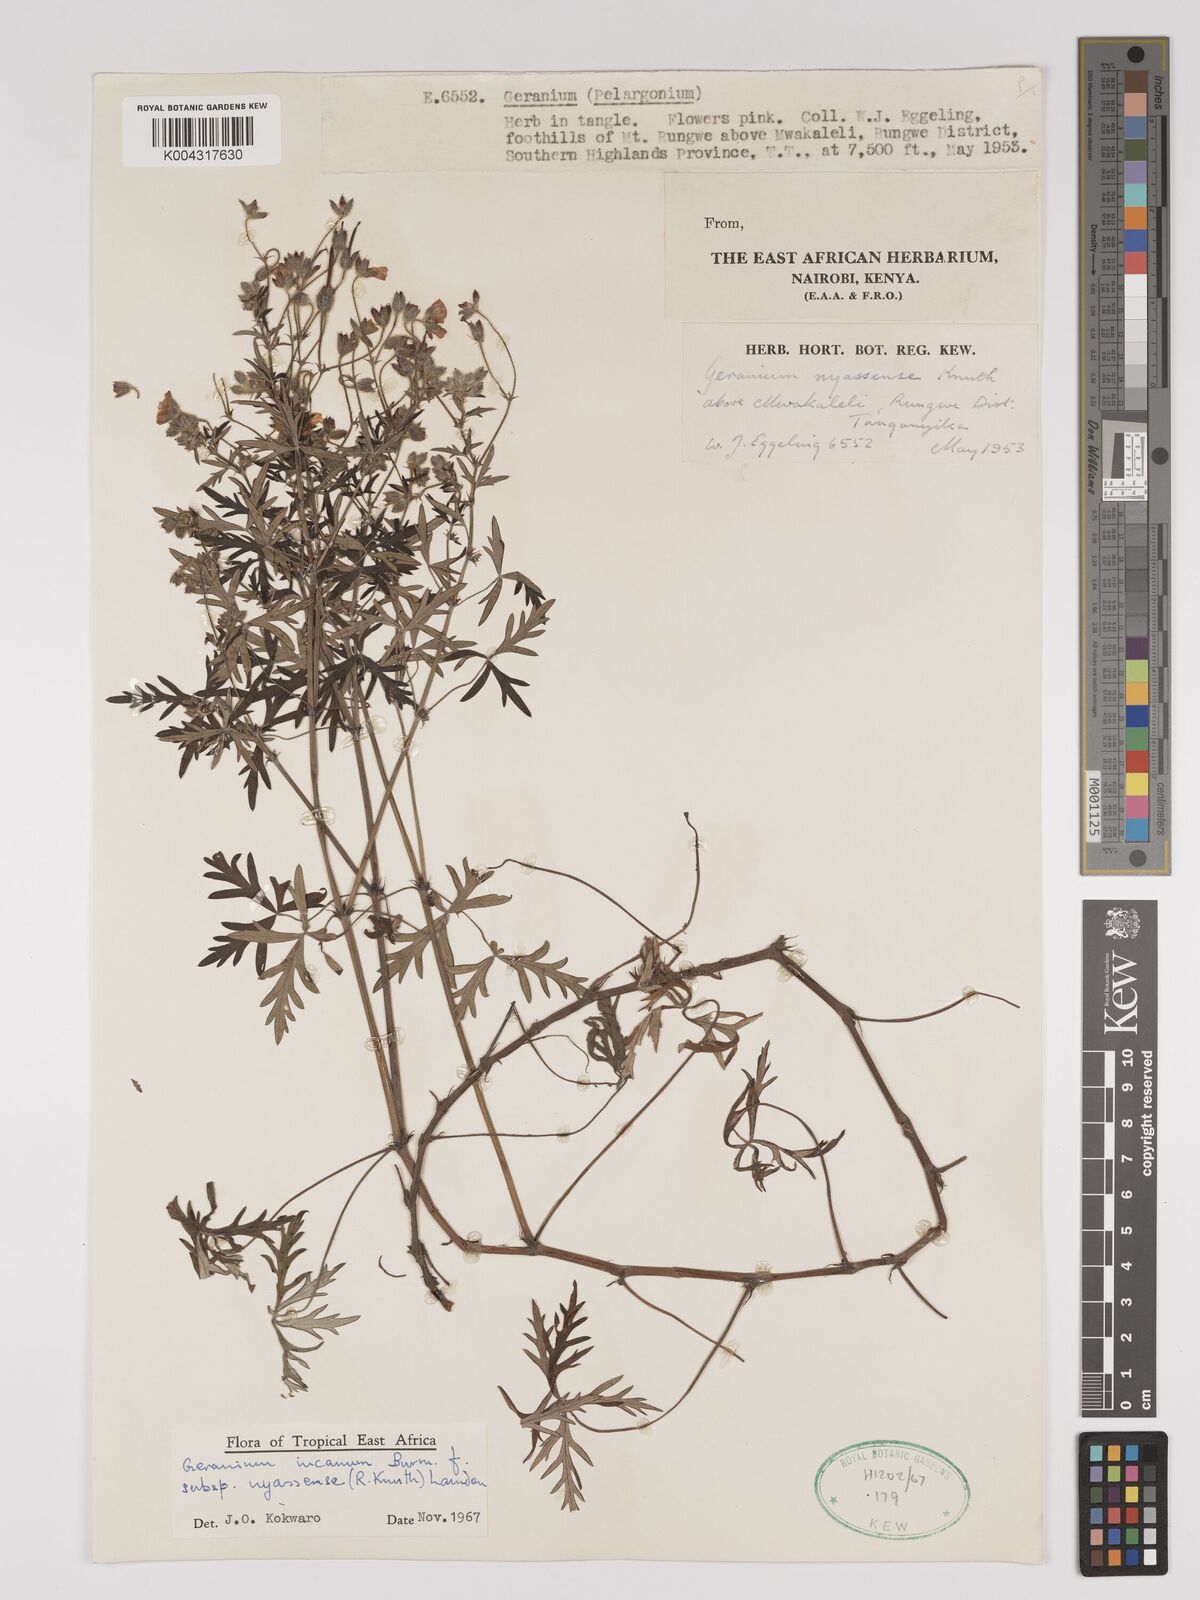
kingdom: Plantae
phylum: Tracheophyta
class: Magnoliopsida
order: Geraniales
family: Geraniaceae
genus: Geranium
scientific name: Geranium incanum
